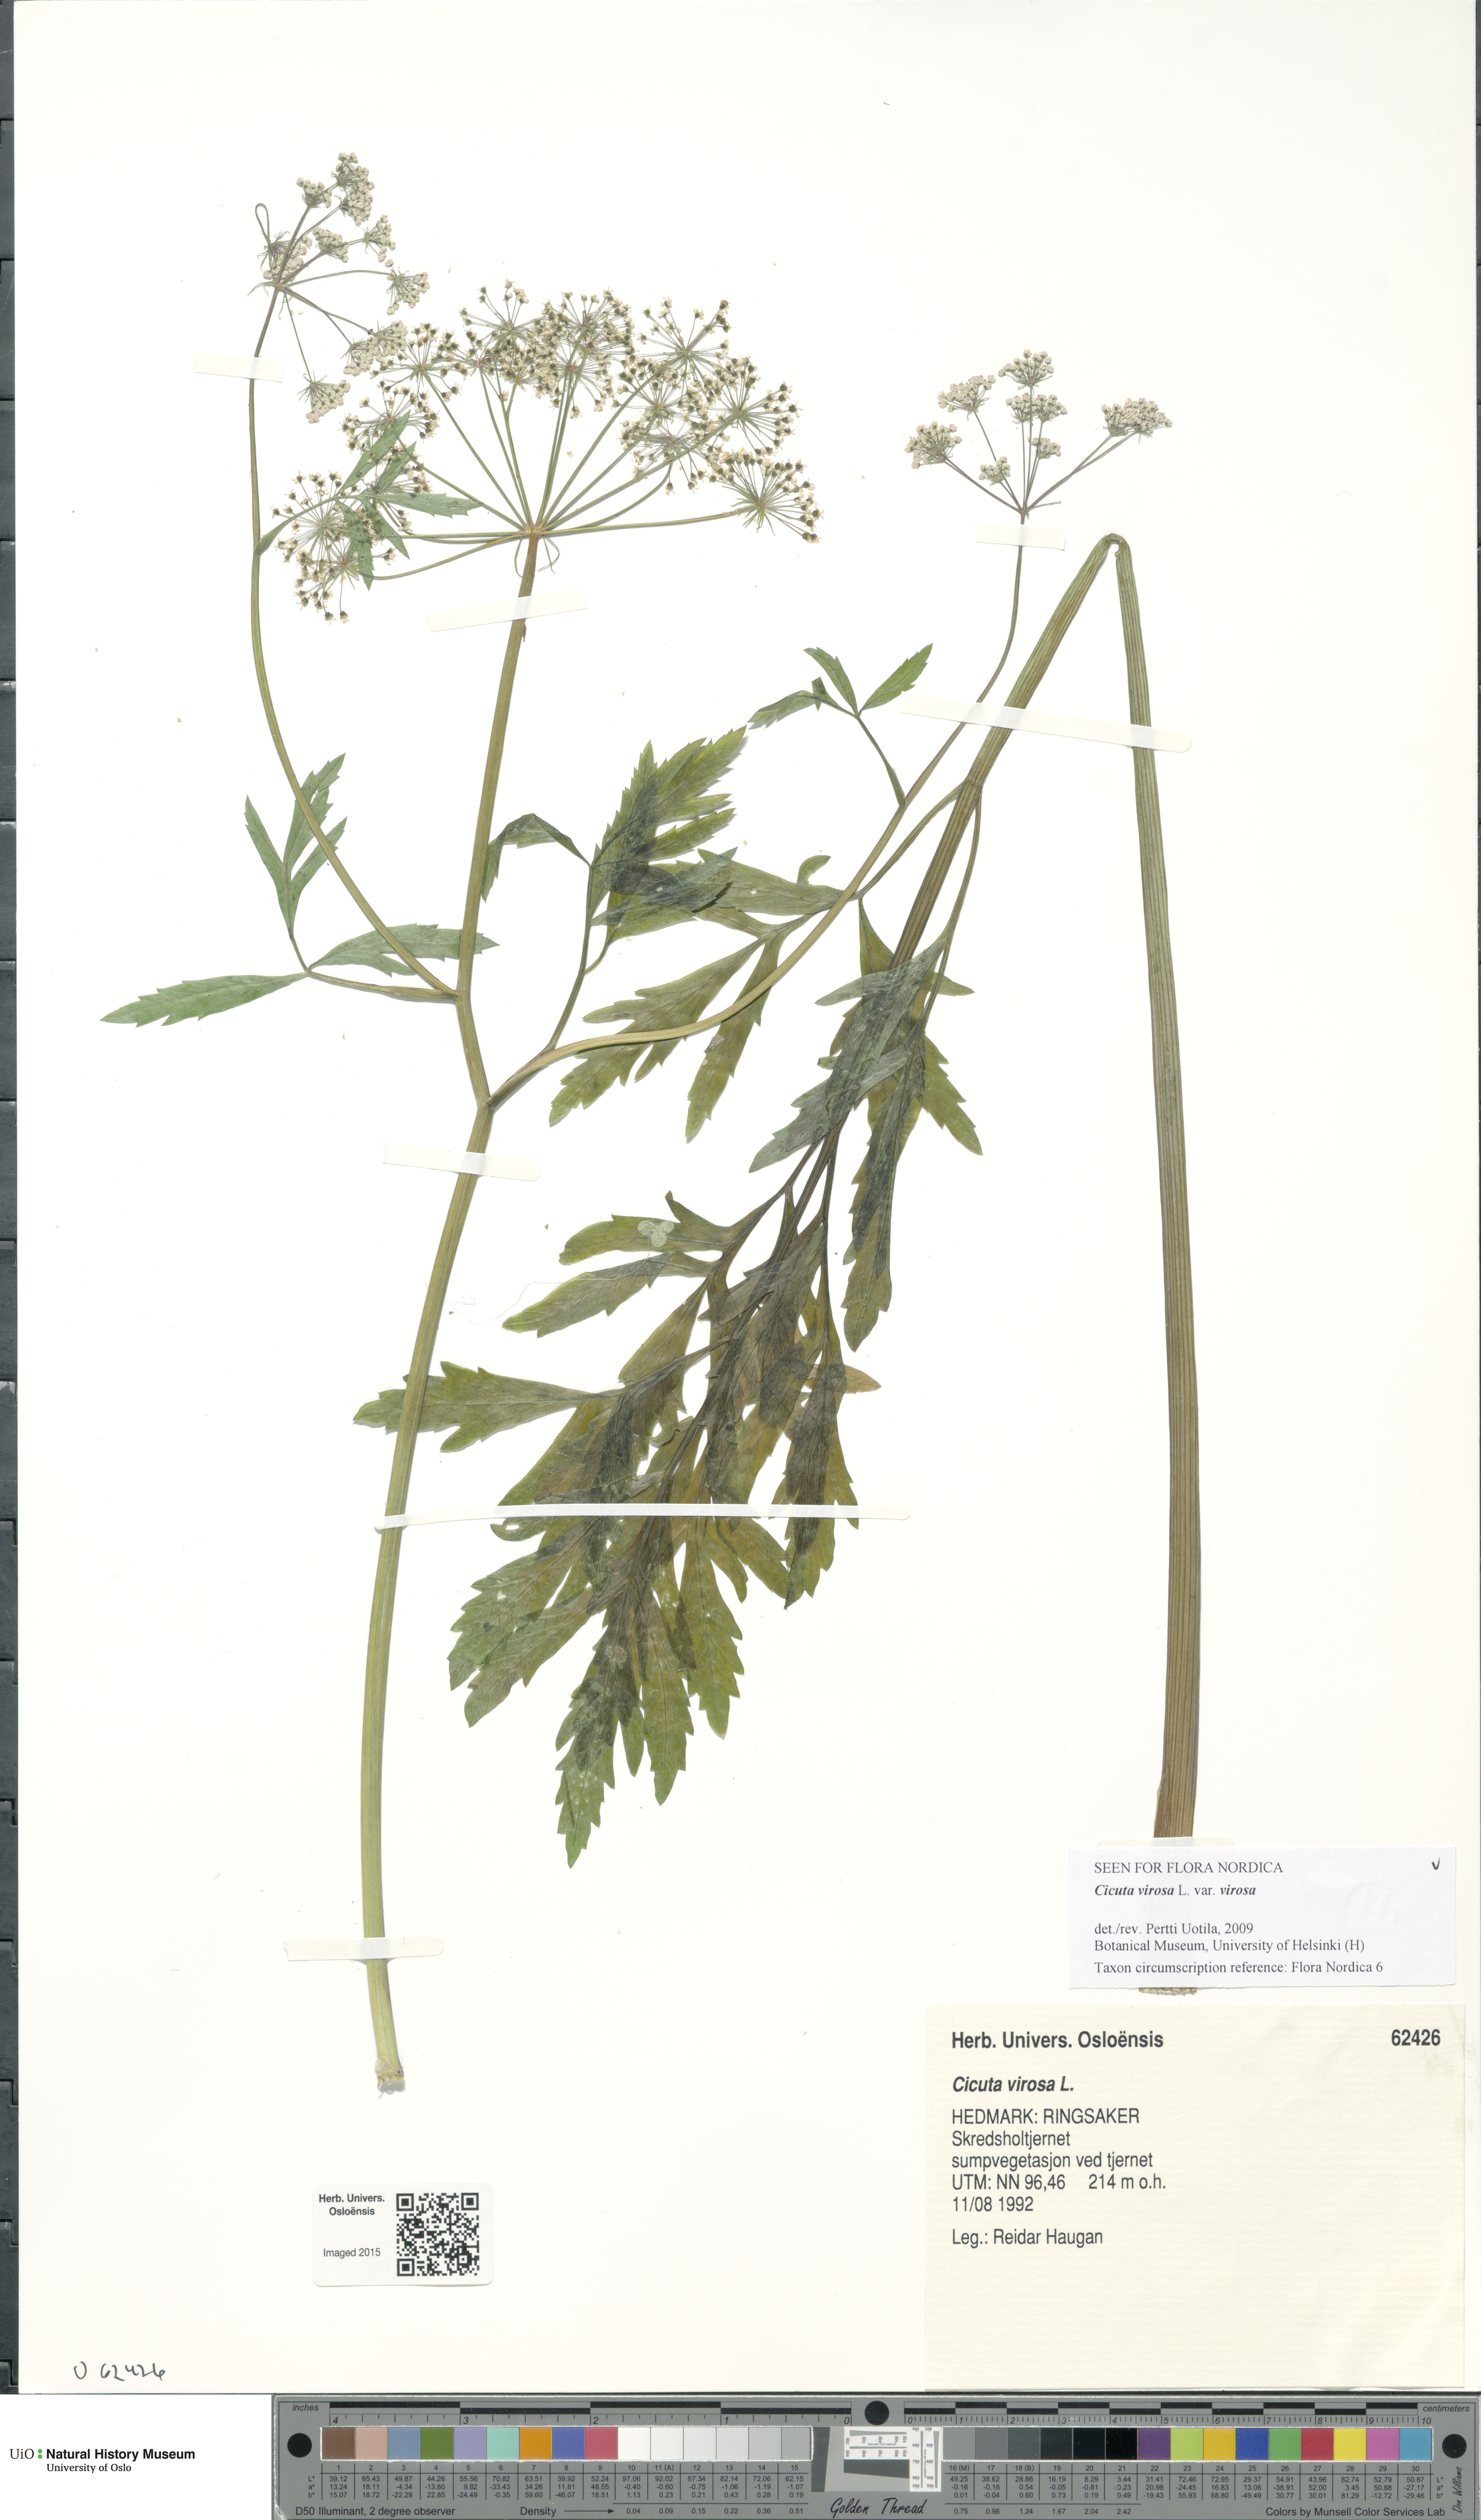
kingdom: Plantae
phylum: Tracheophyta
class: Magnoliopsida
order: Apiales
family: Apiaceae
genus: Cicuta
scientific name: Cicuta virosa
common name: Cowbane
